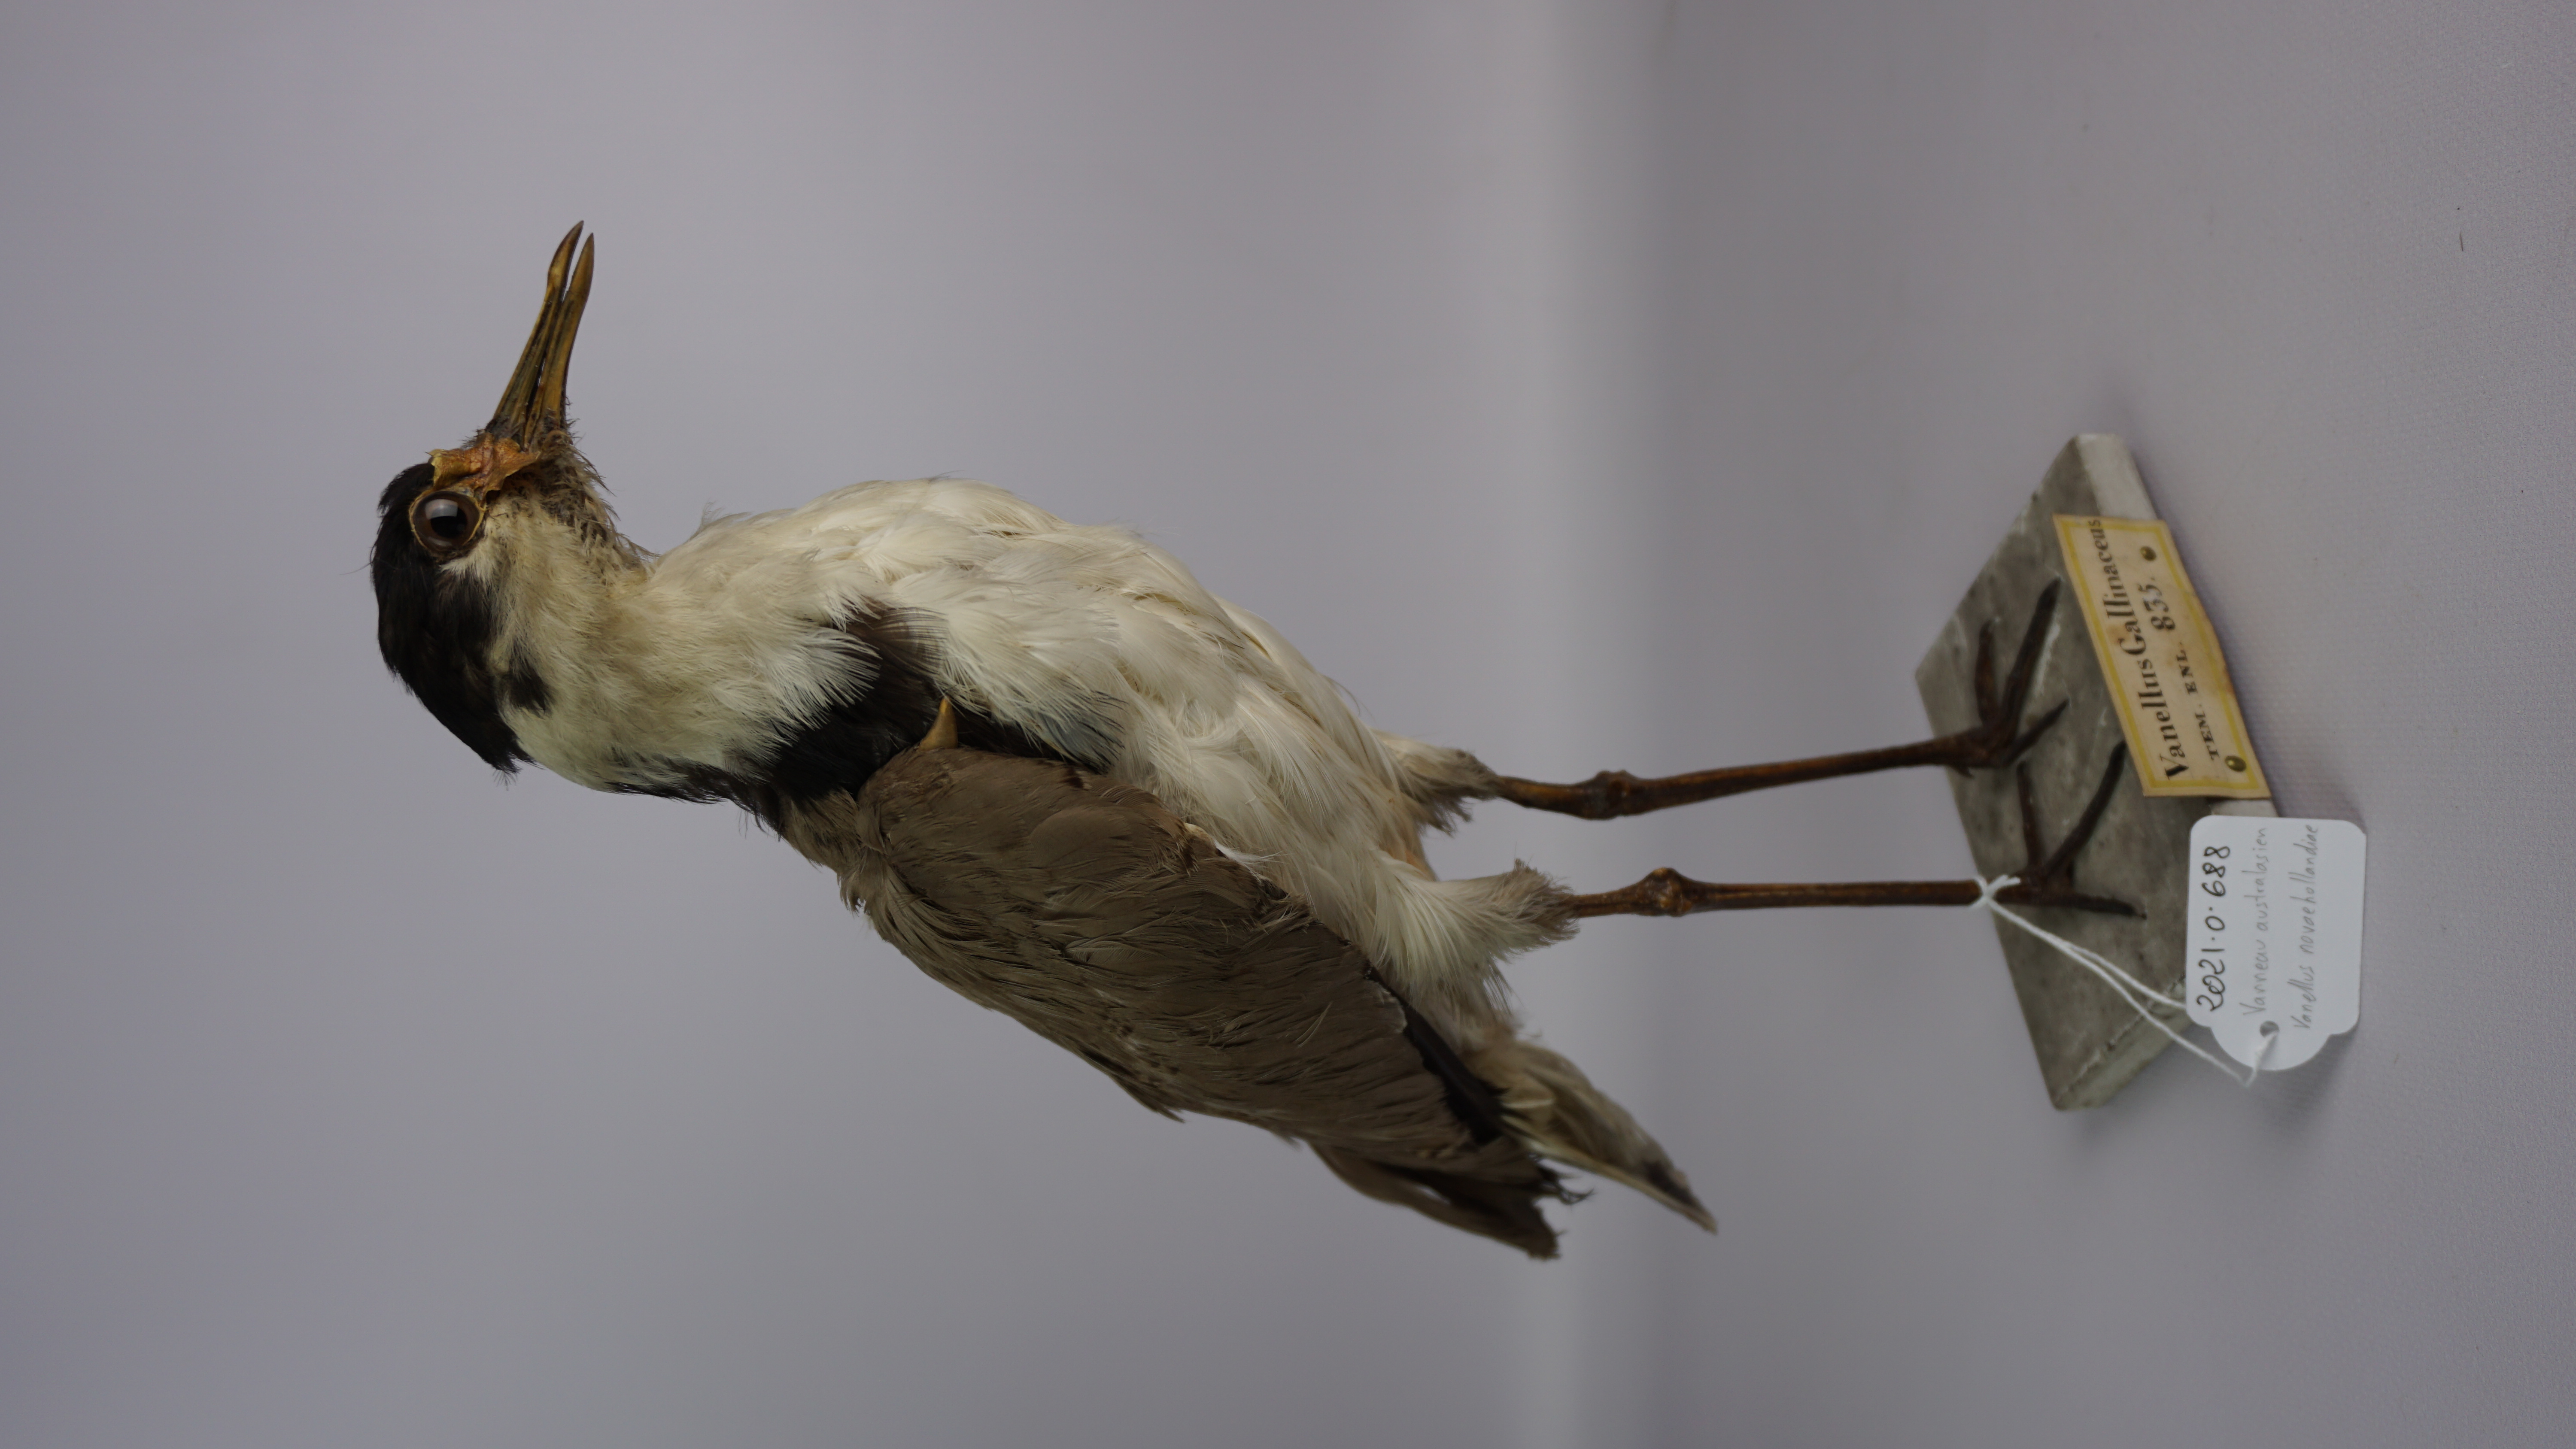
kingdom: Animalia
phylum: Chordata
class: Aves
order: Charadriiformes
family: Charadriidae
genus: Vanellus
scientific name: Vanellus miles
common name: Masked lapwing
